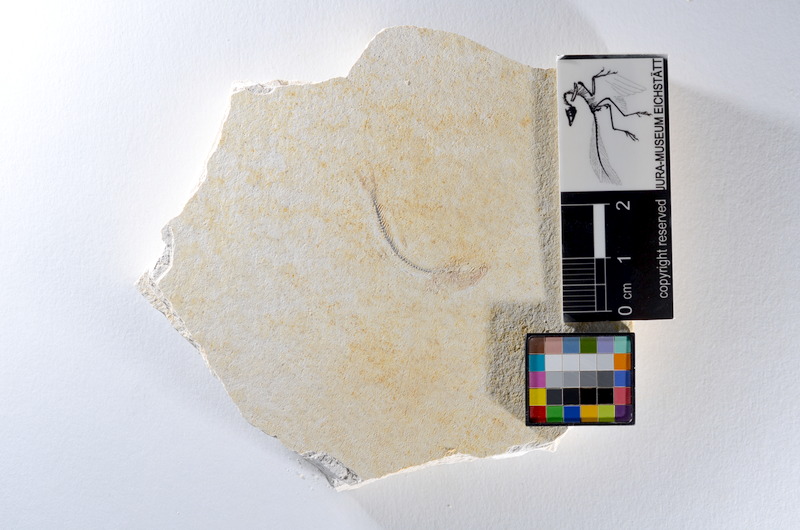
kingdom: Animalia
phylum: Chordata
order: Salmoniformes
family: Orthogonikleithridae
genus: Orthogonikleithrus
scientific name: Orthogonikleithrus hoelli
